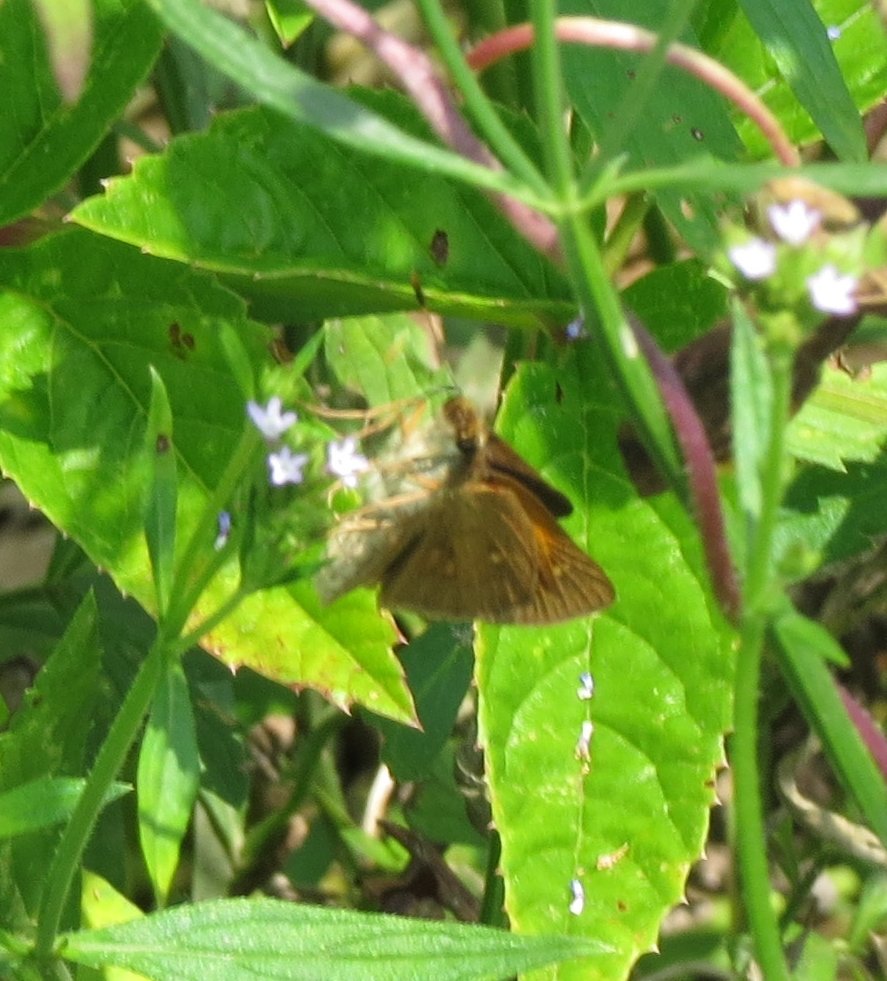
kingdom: Animalia
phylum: Arthropoda
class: Insecta
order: Lepidoptera
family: Hesperiidae
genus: Poanes
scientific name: Poanes viator
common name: Broad-winged Skipper
